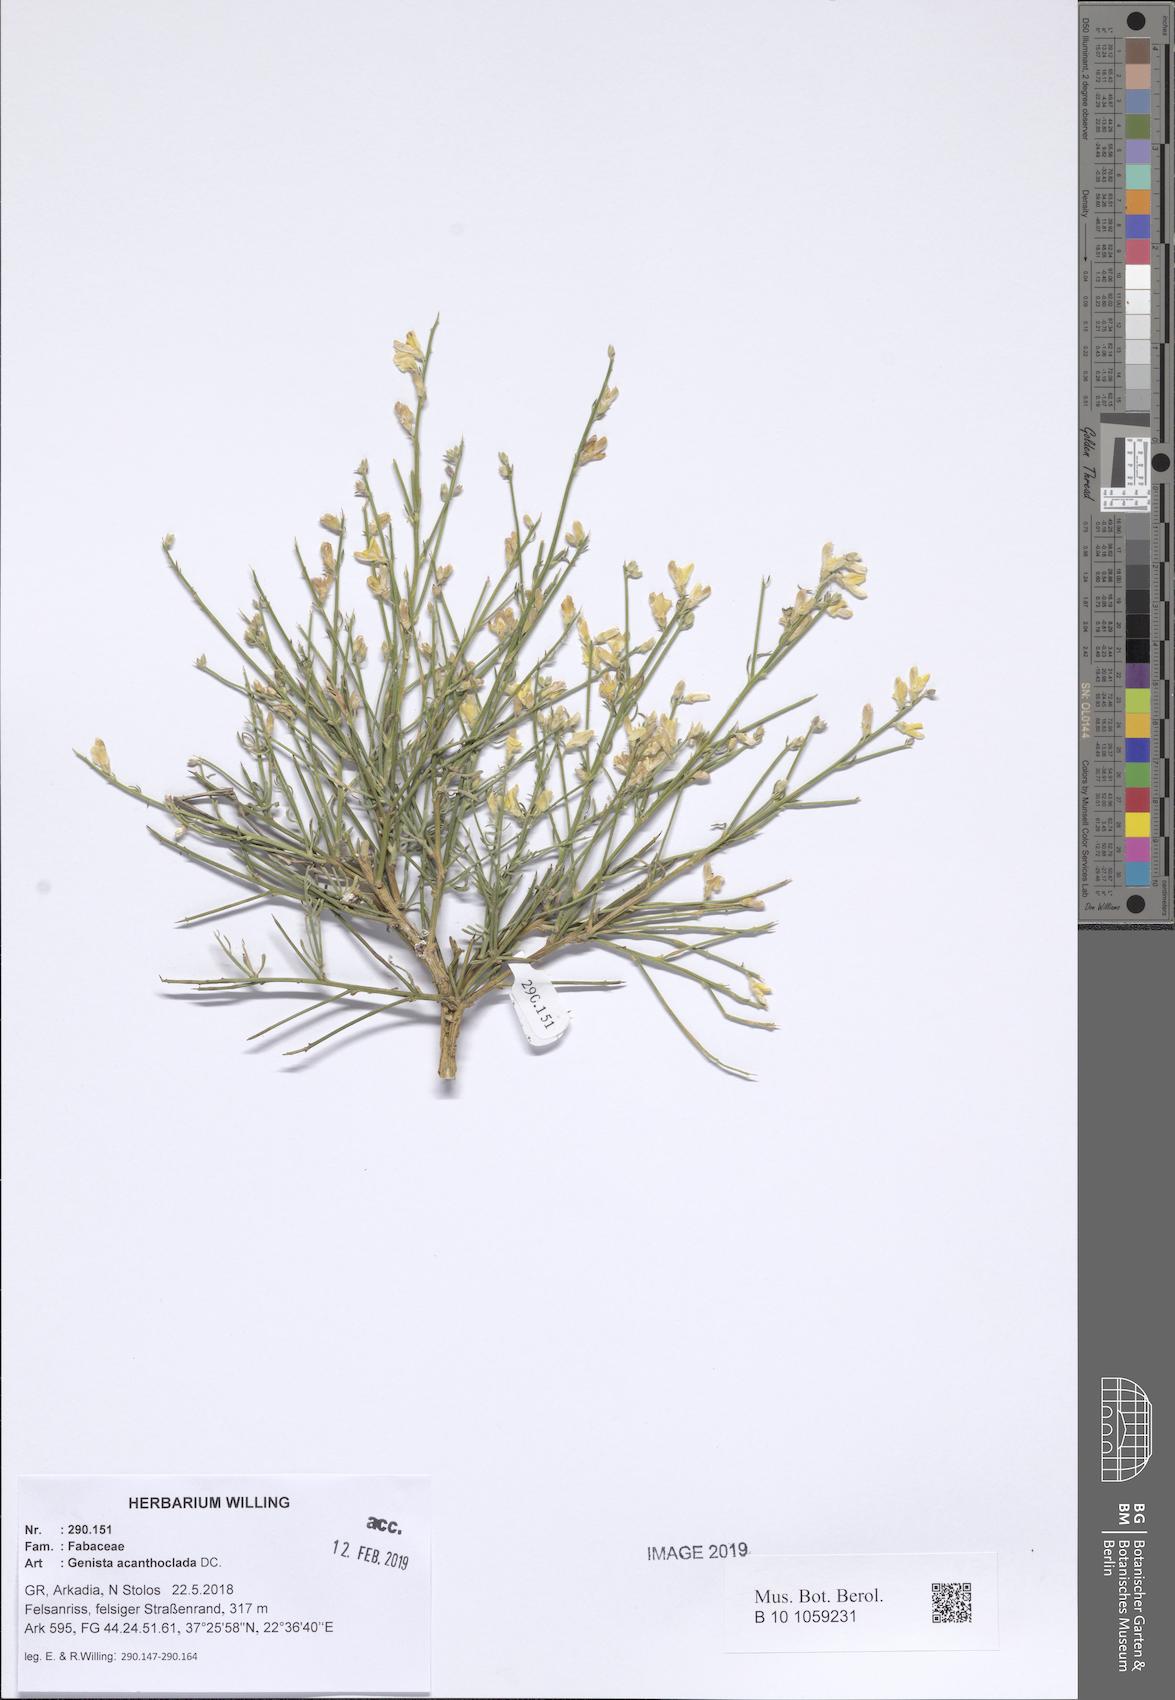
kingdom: Plantae
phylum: Tracheophyta
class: Magnoliopsida
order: Fabales
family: Fabaceae
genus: Genista
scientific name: Genista acanthoclada
